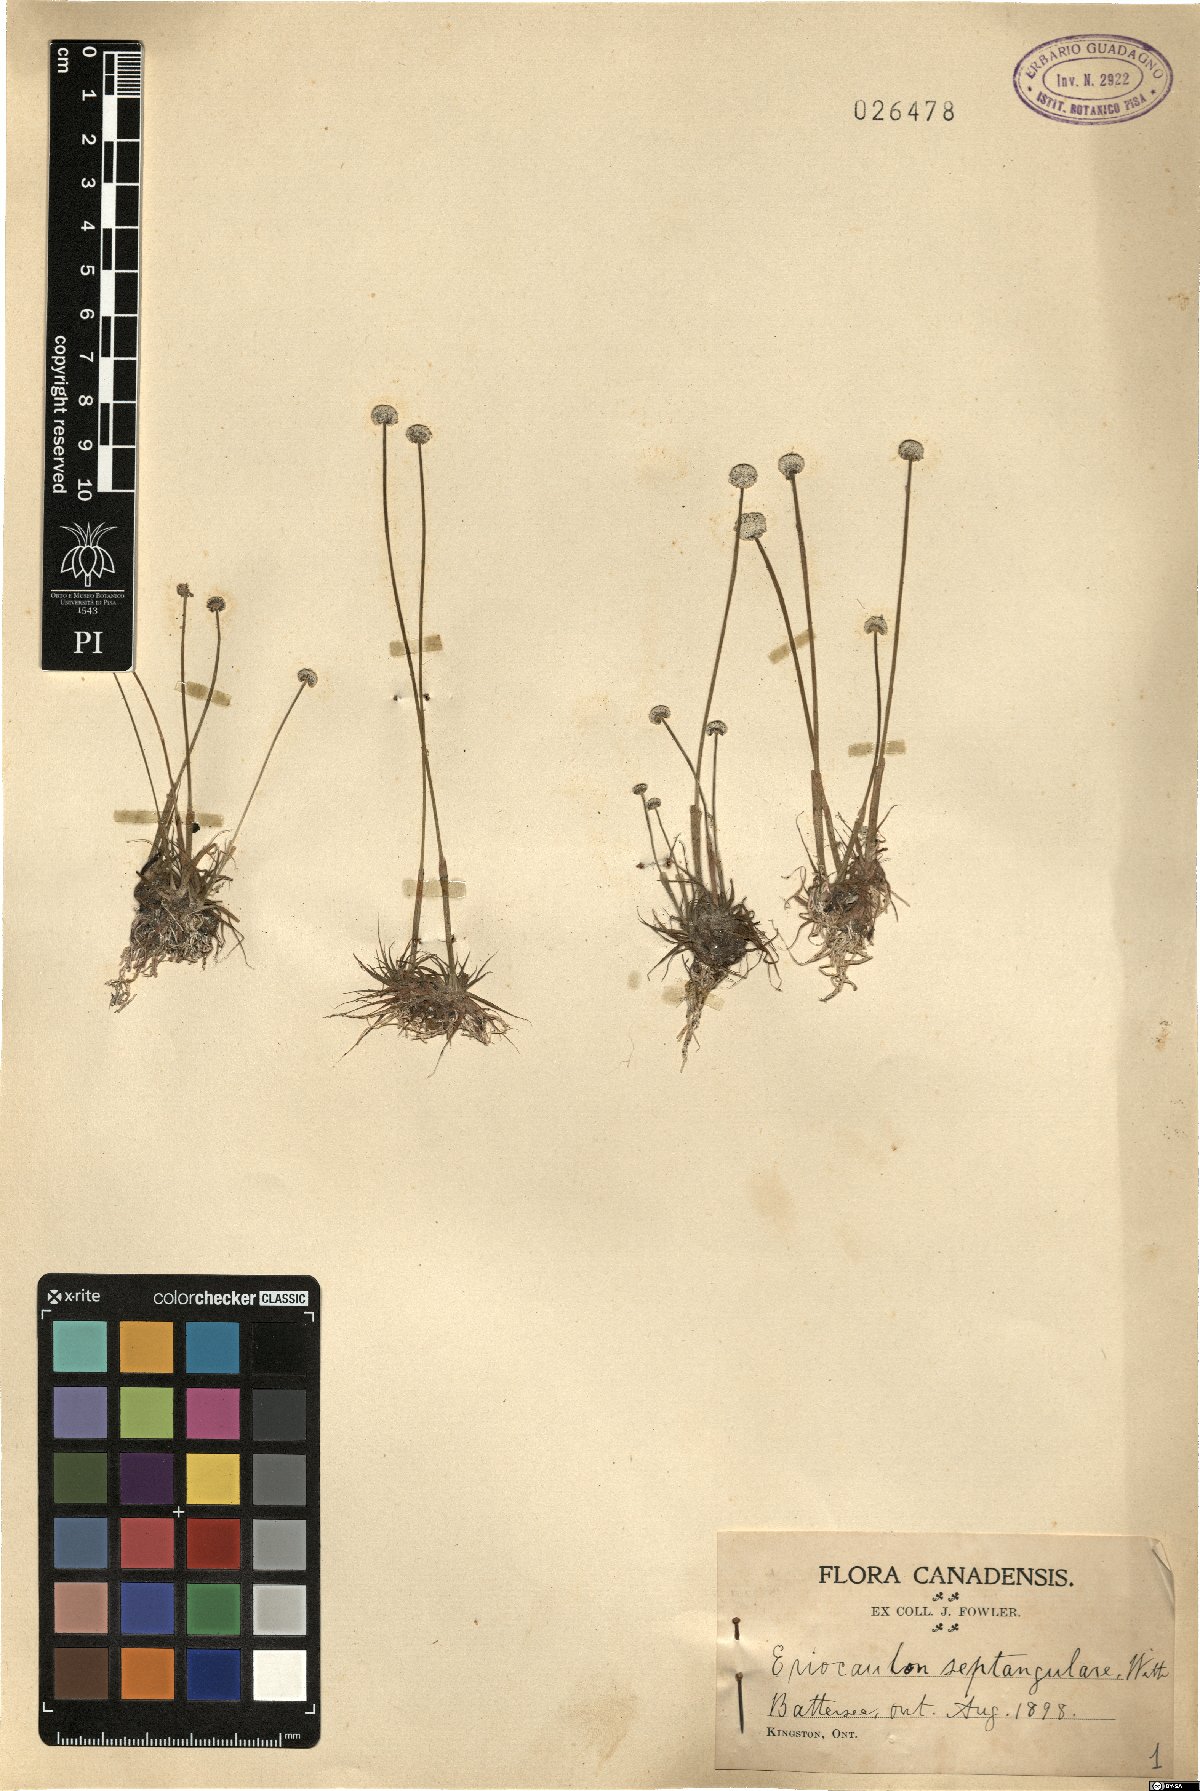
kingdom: Plantae
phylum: Tracheophyta
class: Liliopsida
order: Poales
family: Eriocaulaceae
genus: Eriocaulon
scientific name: Eriocaulon aquaticum
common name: Pipewort
